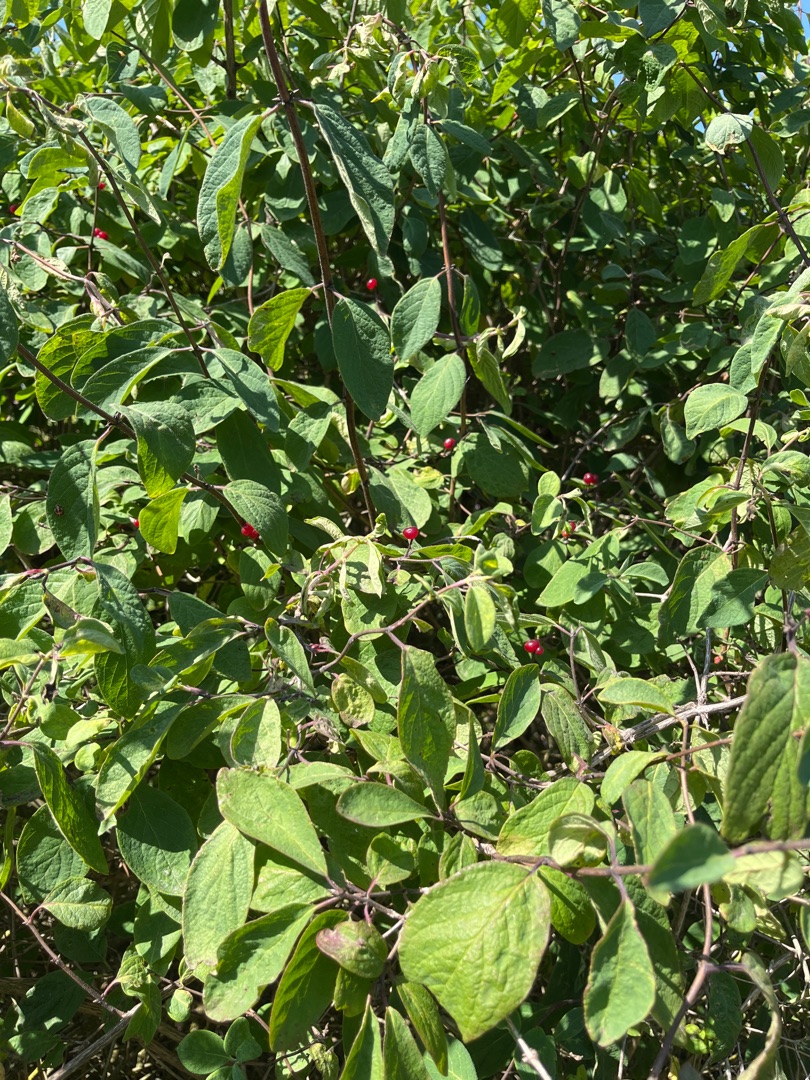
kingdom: Plantae
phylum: Tracheophyta
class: Magnoliopsida
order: Dipsacales
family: Caprifoliaceae
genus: Lonicera
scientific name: Lonicera xylosteum
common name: Dunet gedeblad
